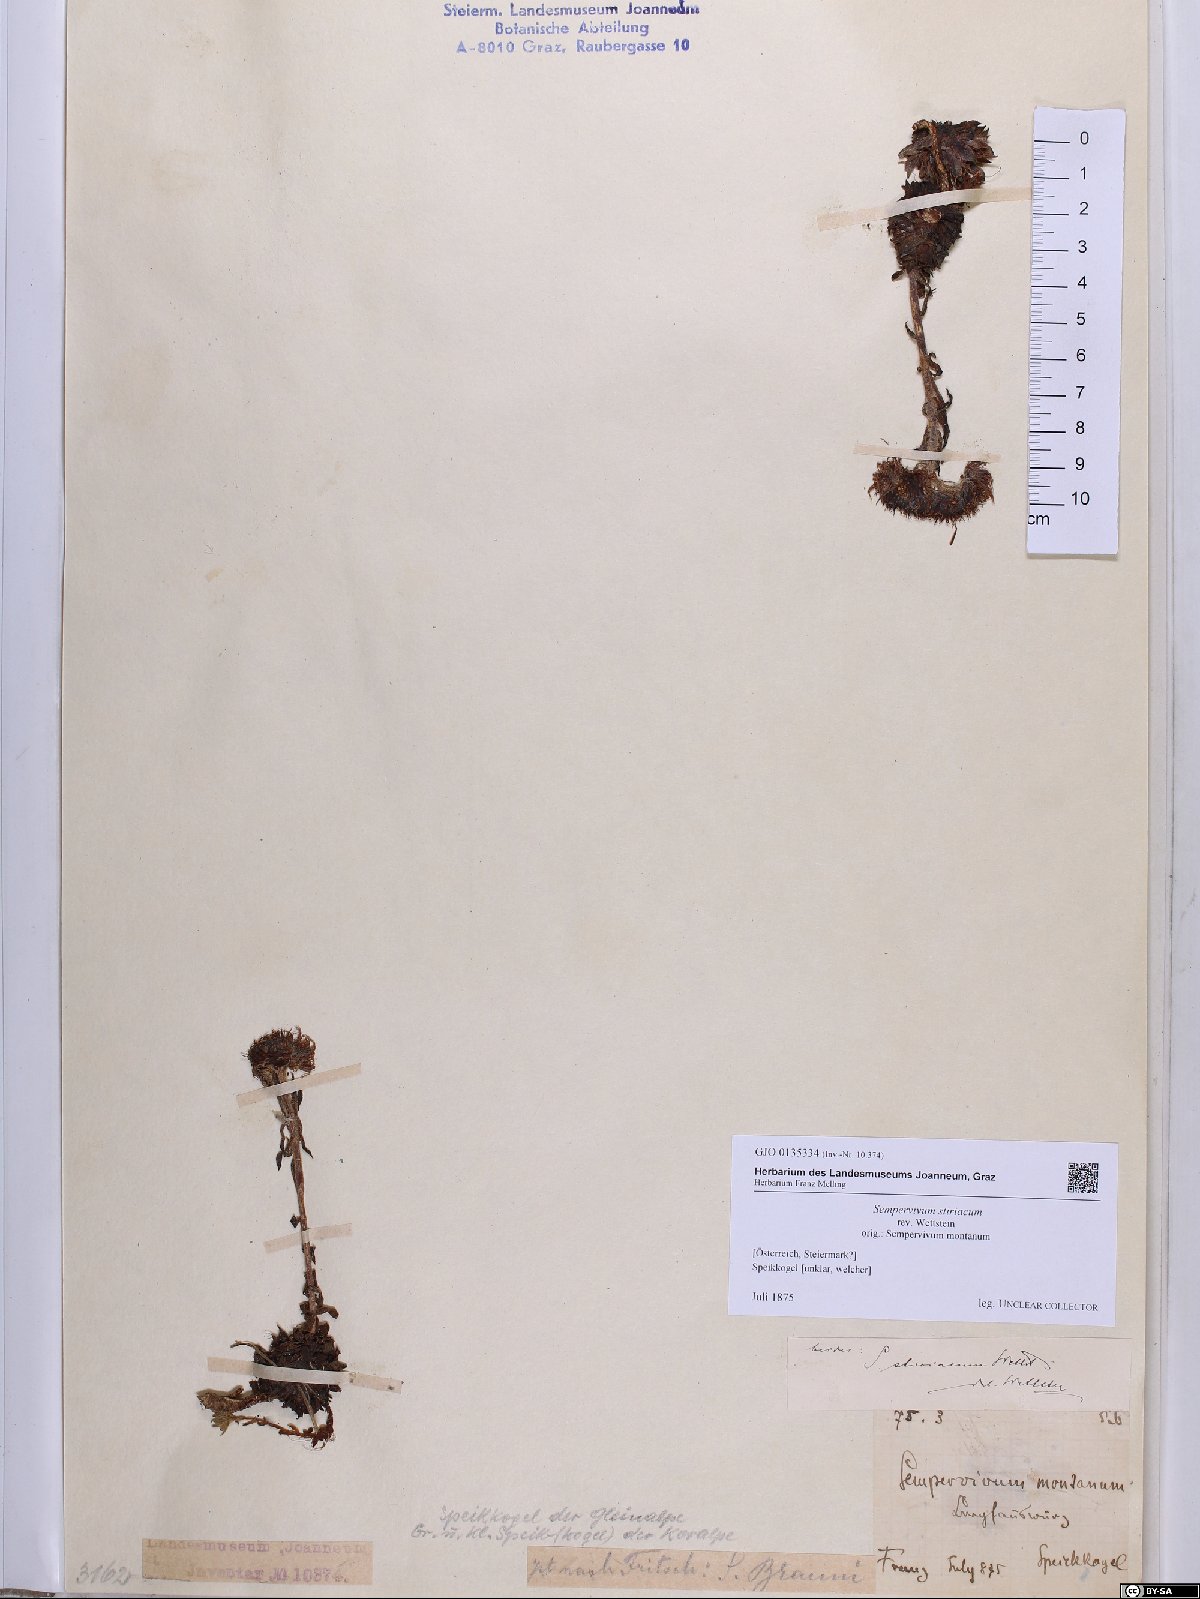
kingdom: Plantae
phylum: Tracheophyta
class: Magnoliopsida
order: Saxifragales
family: Crassulaceae
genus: Sempervivum
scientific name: Sempervivum montanum
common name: Mountain house-leek
